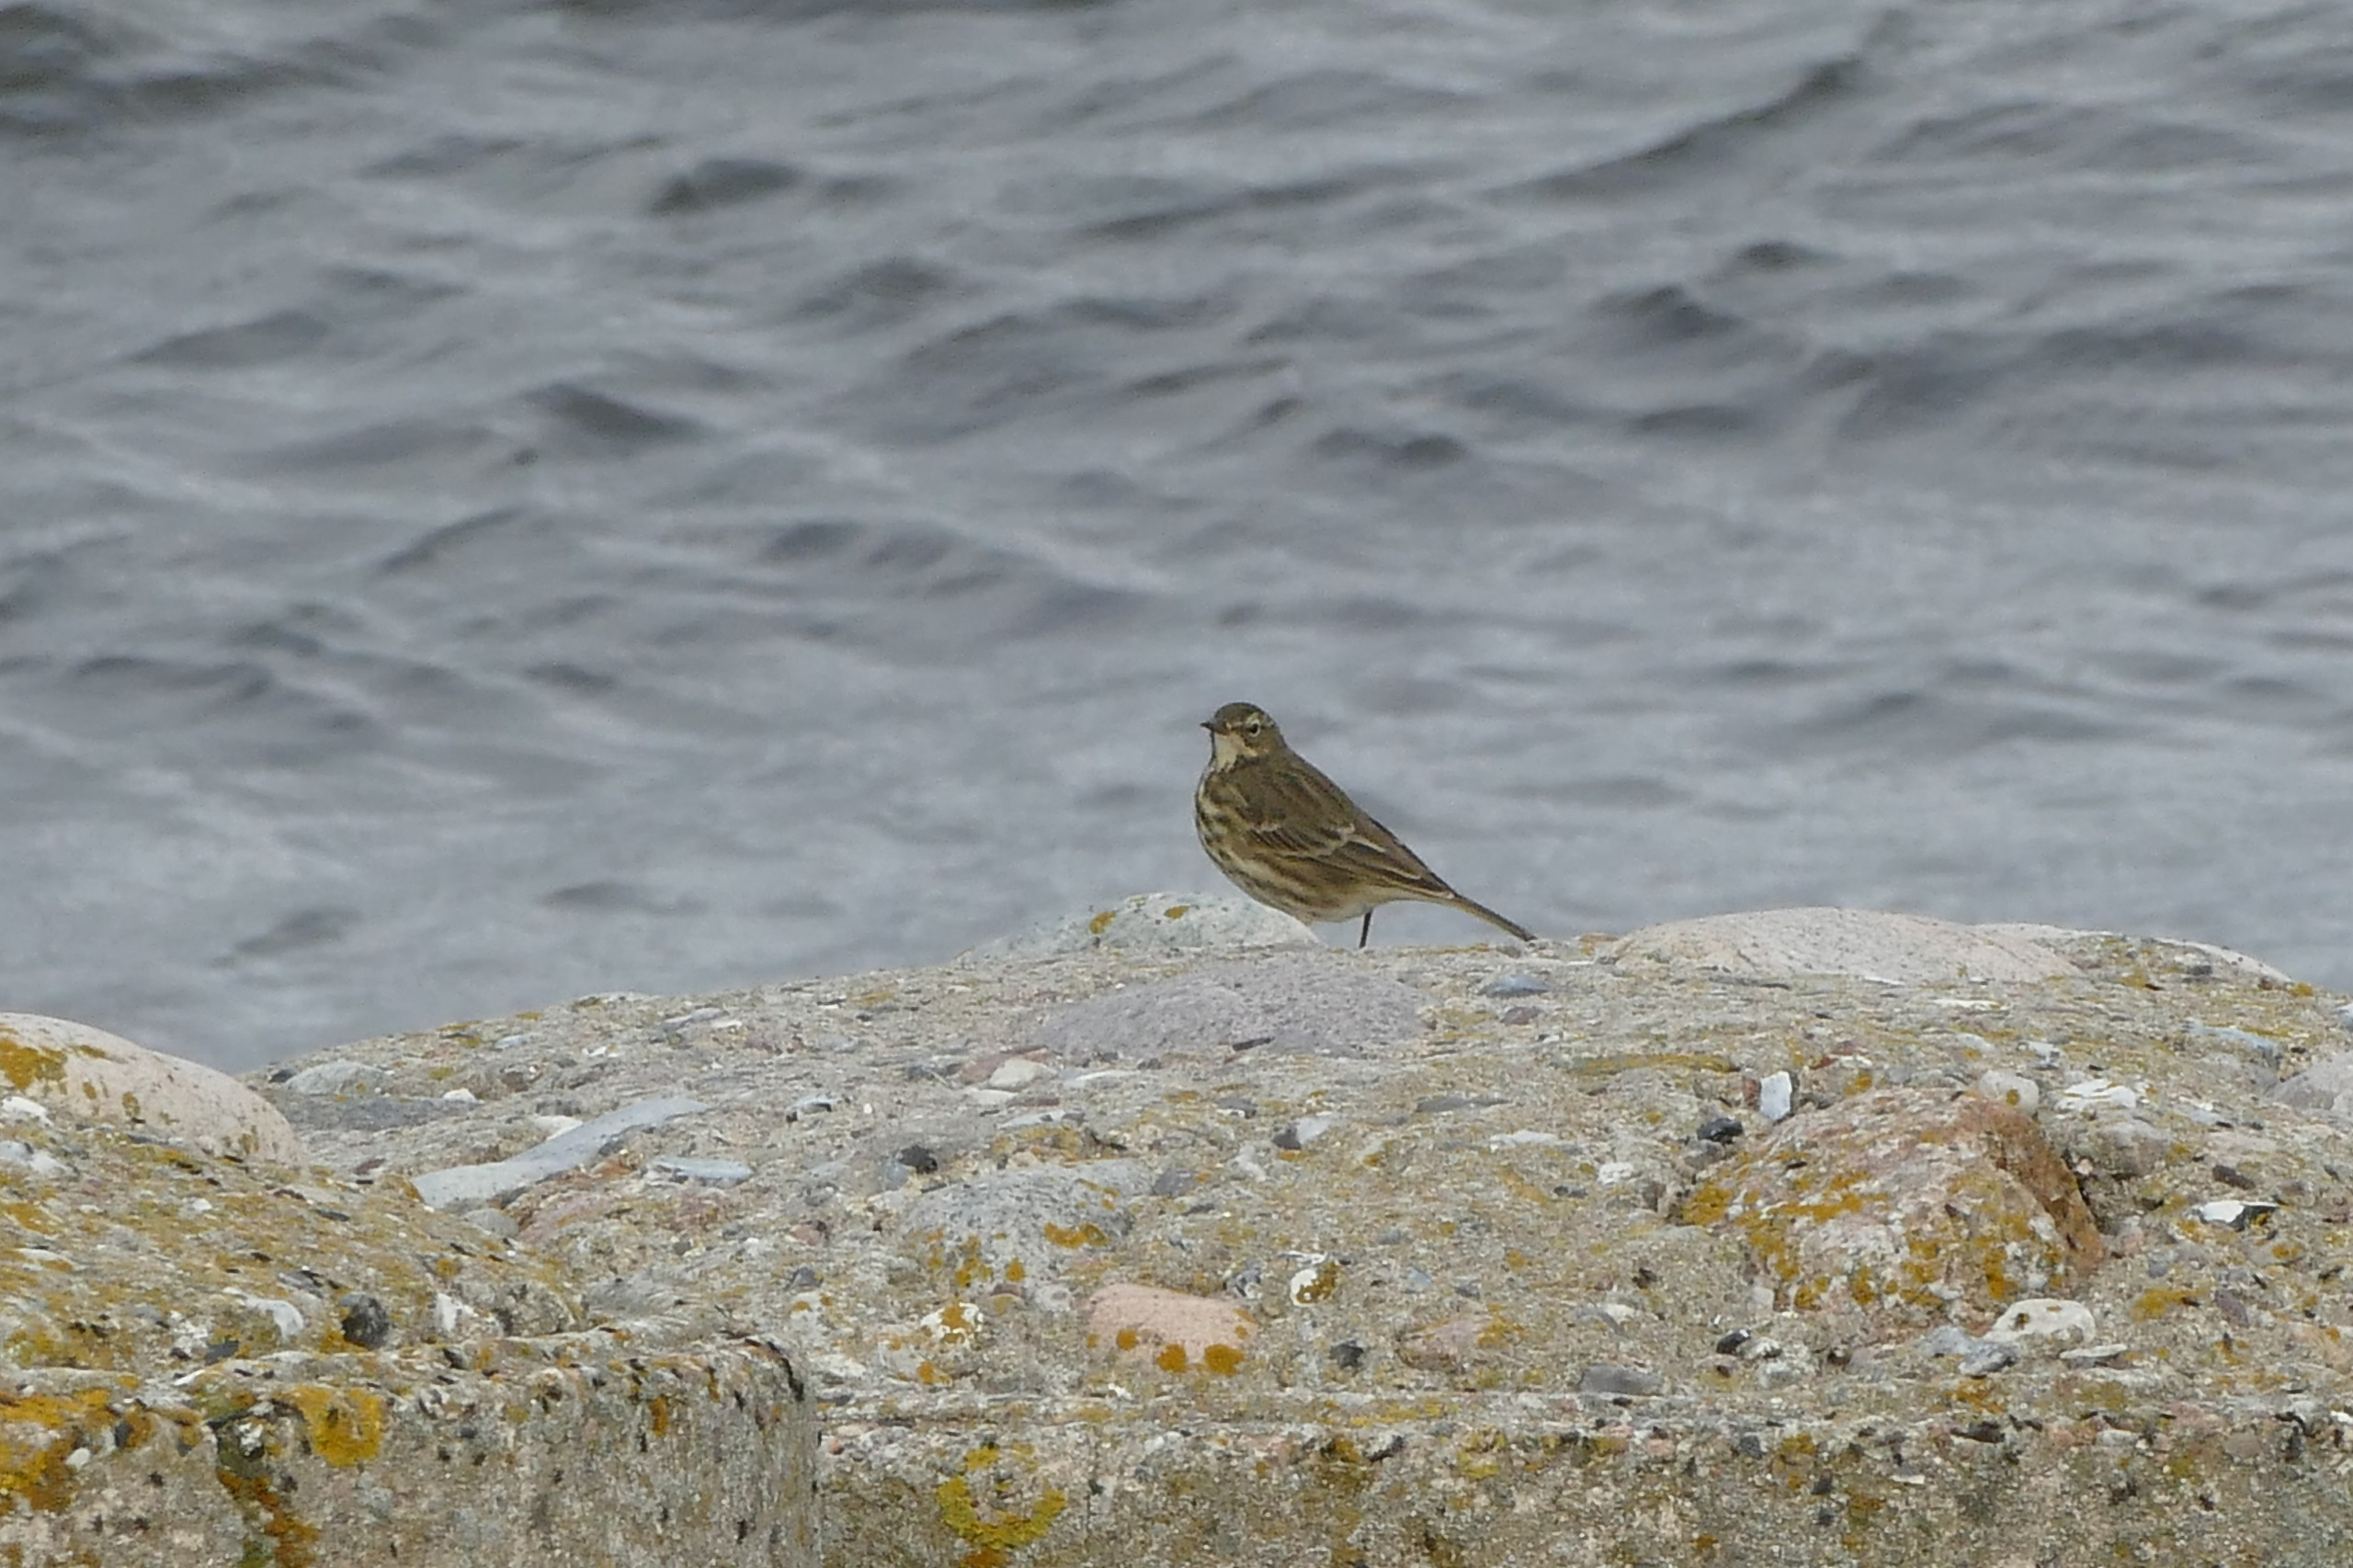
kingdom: Animalia
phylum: Chordata
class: Aves
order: Passeriformes
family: Motacillidae
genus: Anthus
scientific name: Anthus petrosus
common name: Skærpiber
